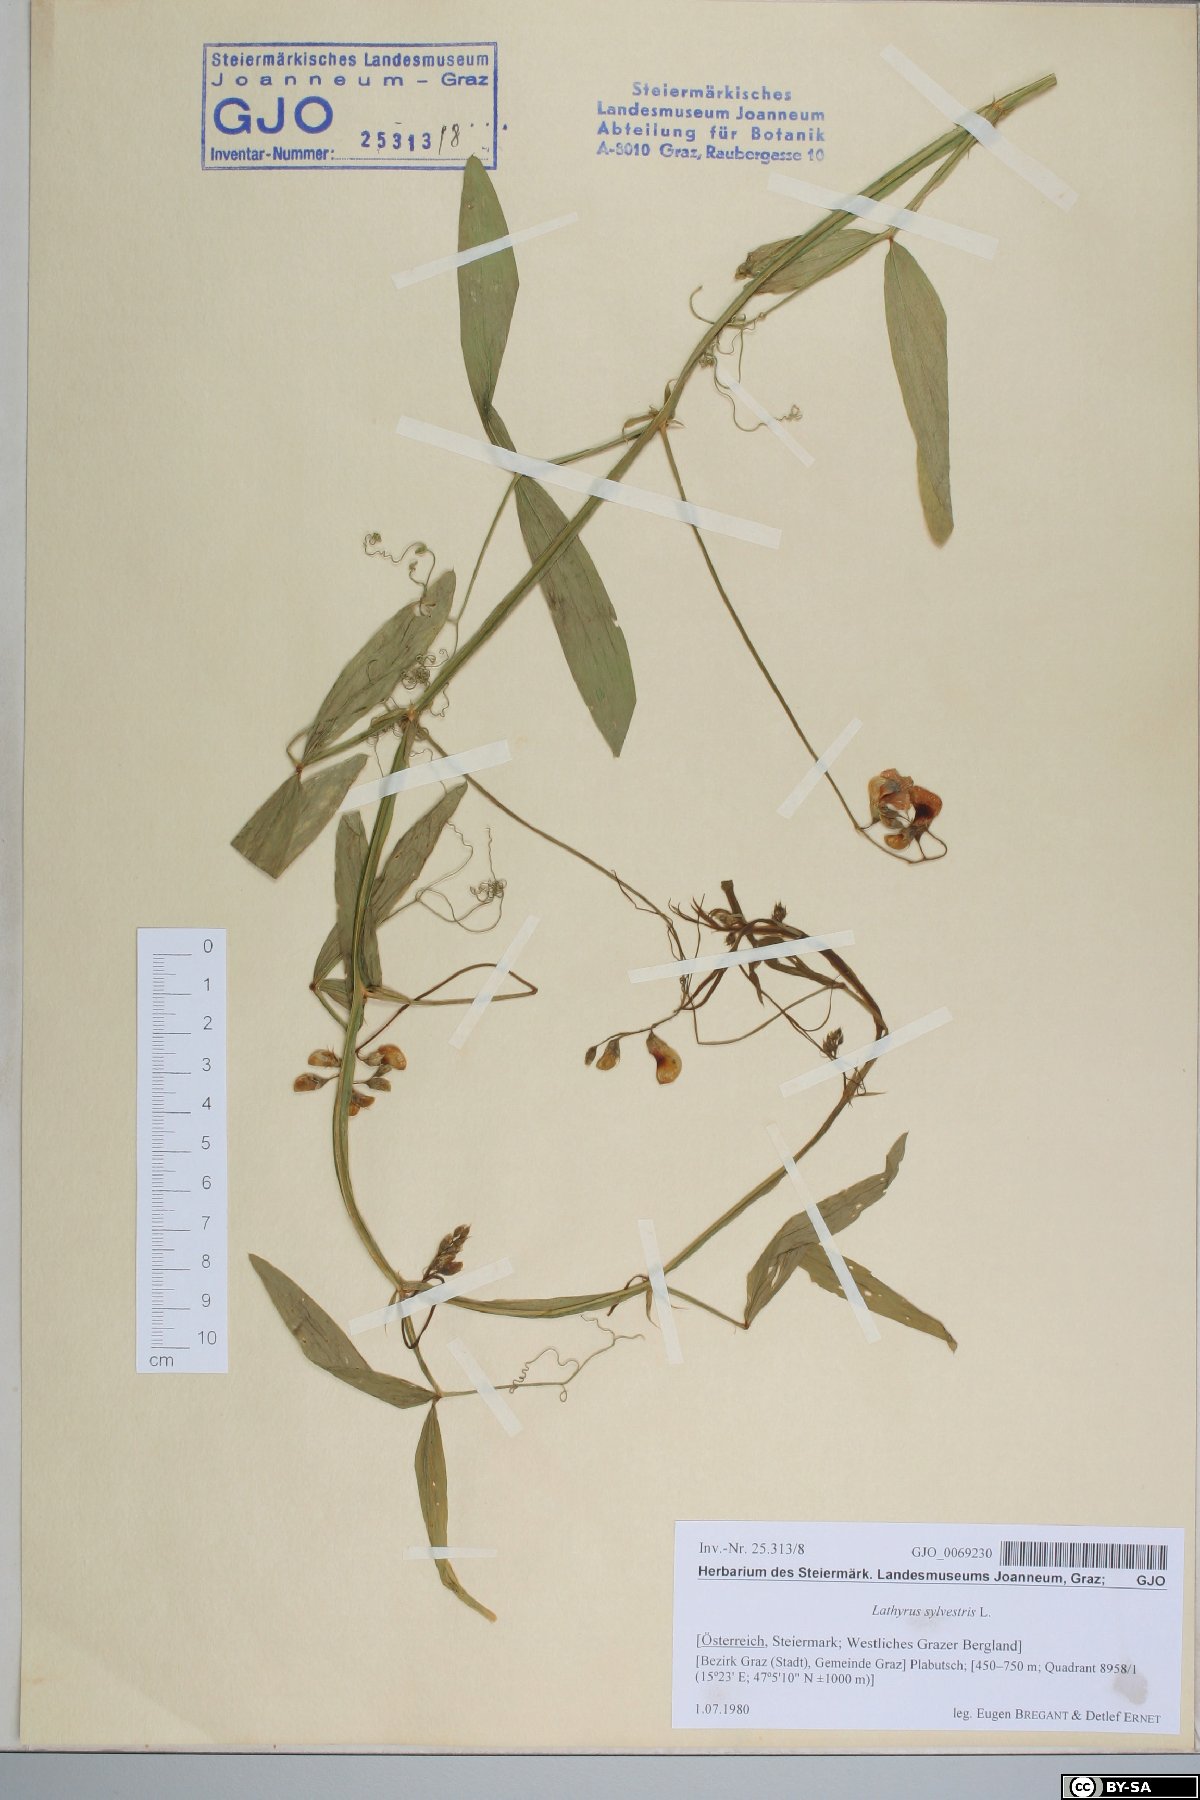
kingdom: Plantae
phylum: Tracheophyta
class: Magnoliopsida
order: Fabales
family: Fabaceae
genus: Lathyrus
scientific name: Lathyrus sylvestris
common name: Flat pea
